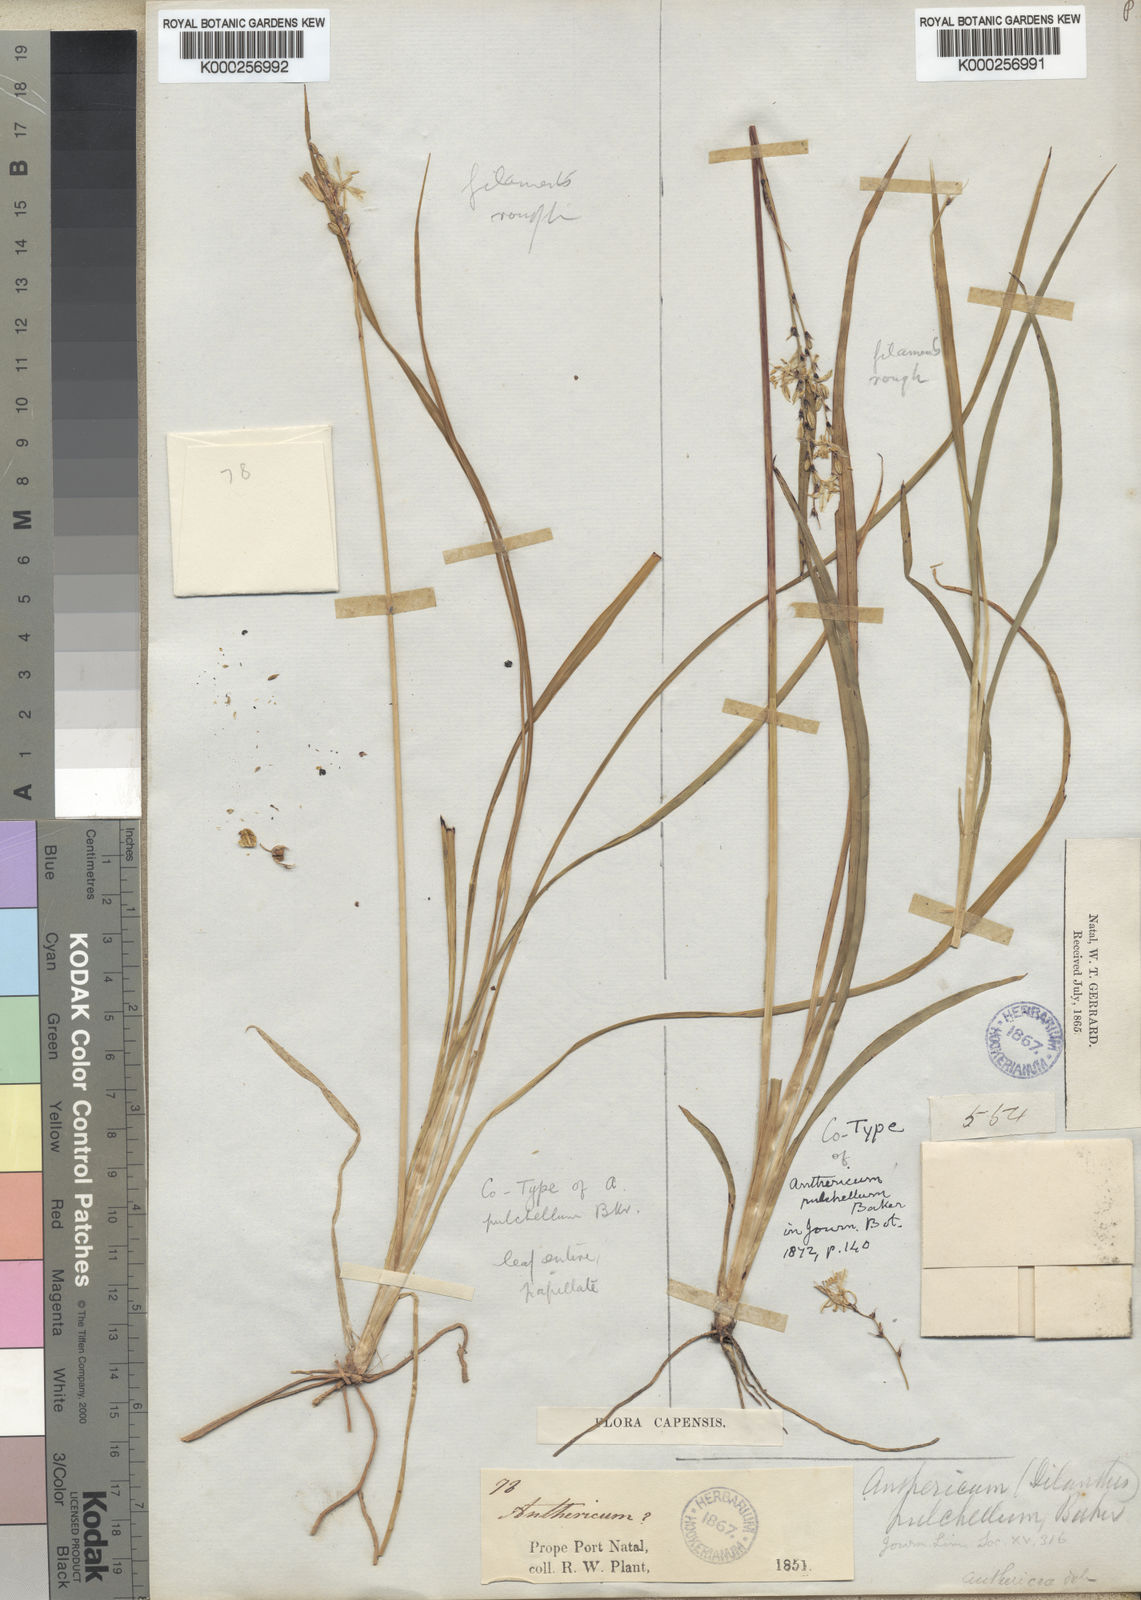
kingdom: Plantae
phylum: Tracheophyta
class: Liliopsida
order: Asparagales
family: Asparagaceae
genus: Chlorophytum
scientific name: Chlorophytum saundersiae
